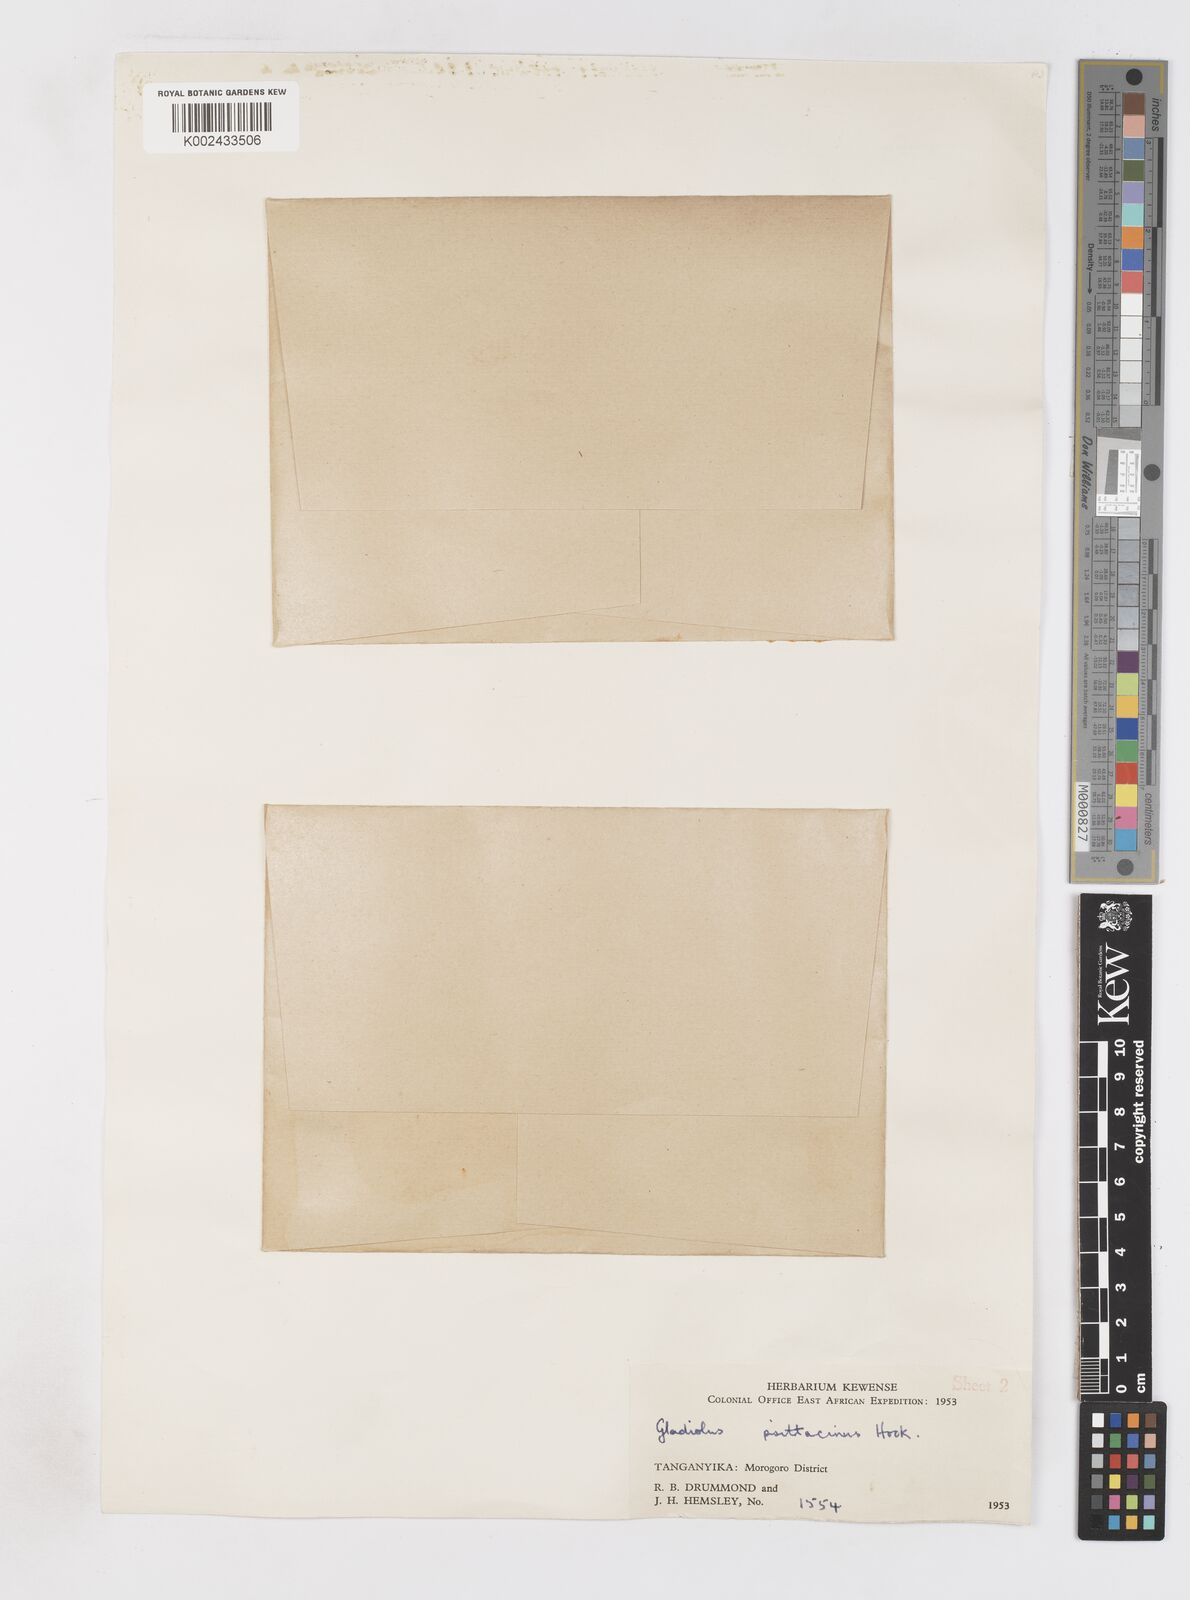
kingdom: Plantae
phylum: Tracheophyta
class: Liliopsida
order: Asparagales
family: Iridaceae
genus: Gladiolus
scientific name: Gladiolus dalenii
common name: Cornflag
